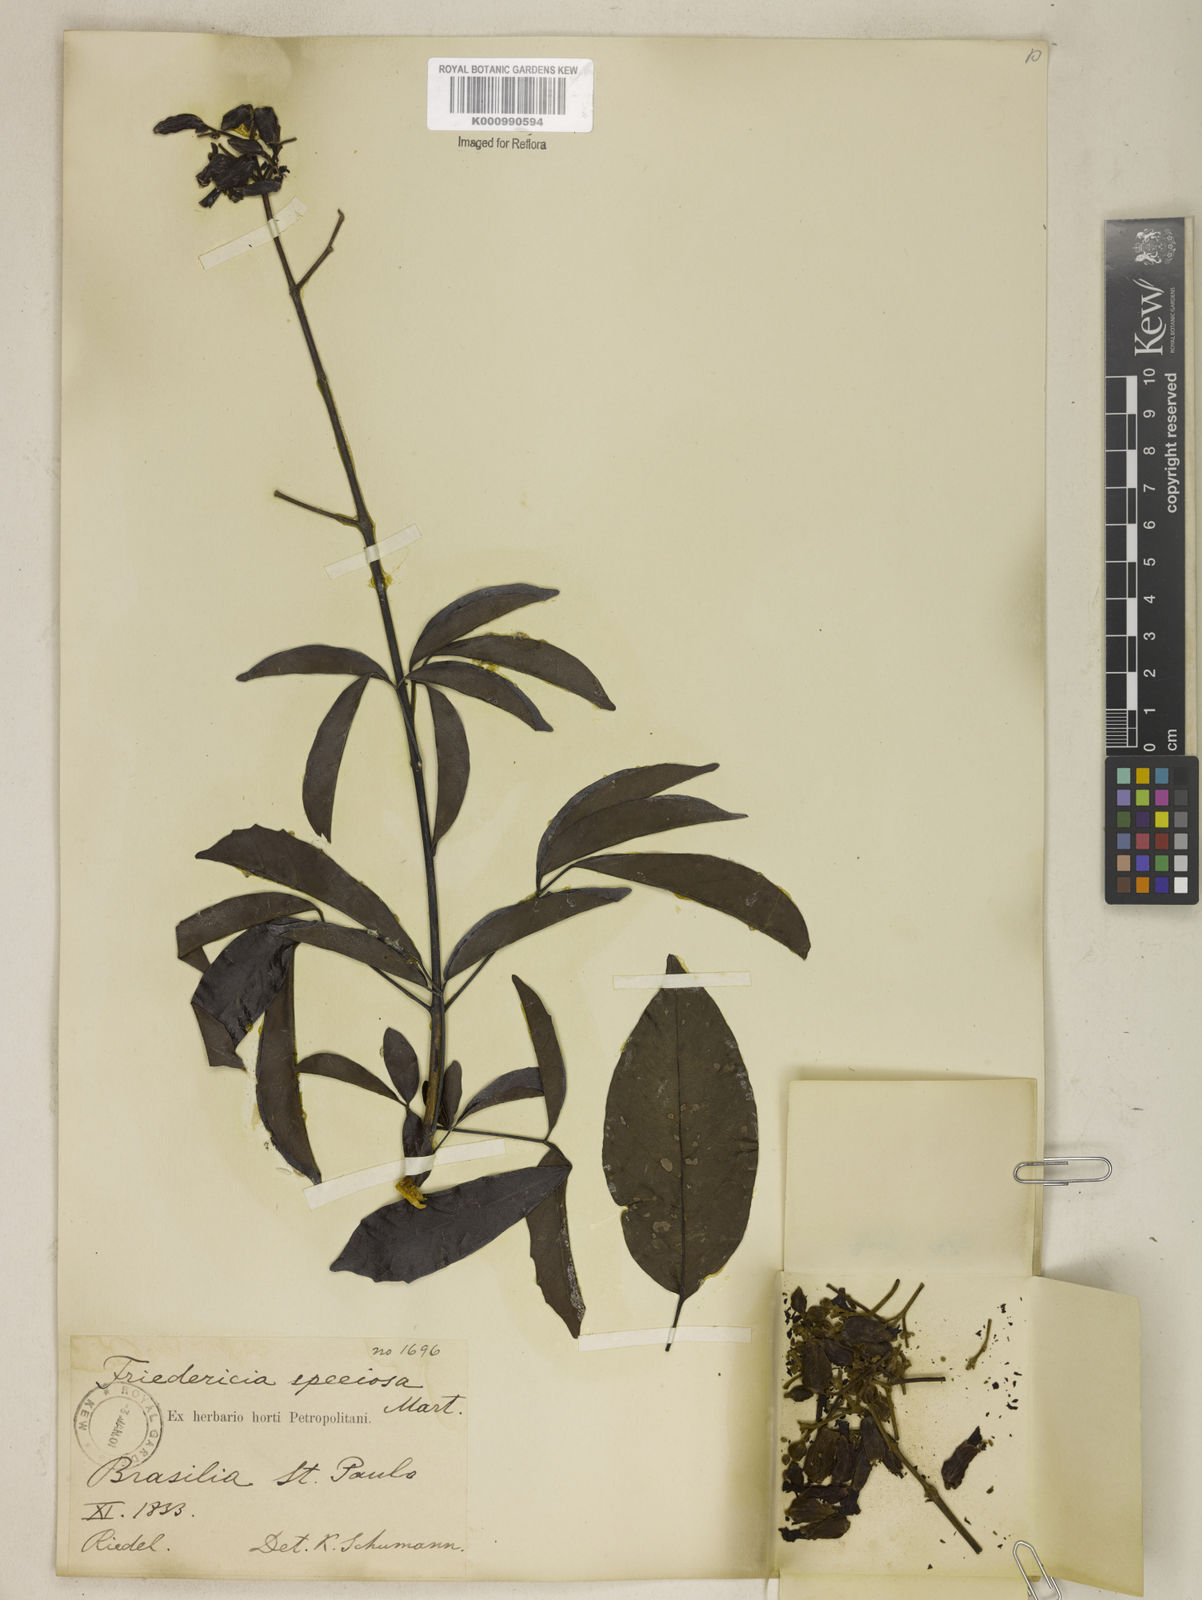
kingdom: Plantae
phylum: Tracheophyta
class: Magnoliopsida
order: Lamiales
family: Bignoniaceae
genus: Fridericia
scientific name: Fridericia speciosa
